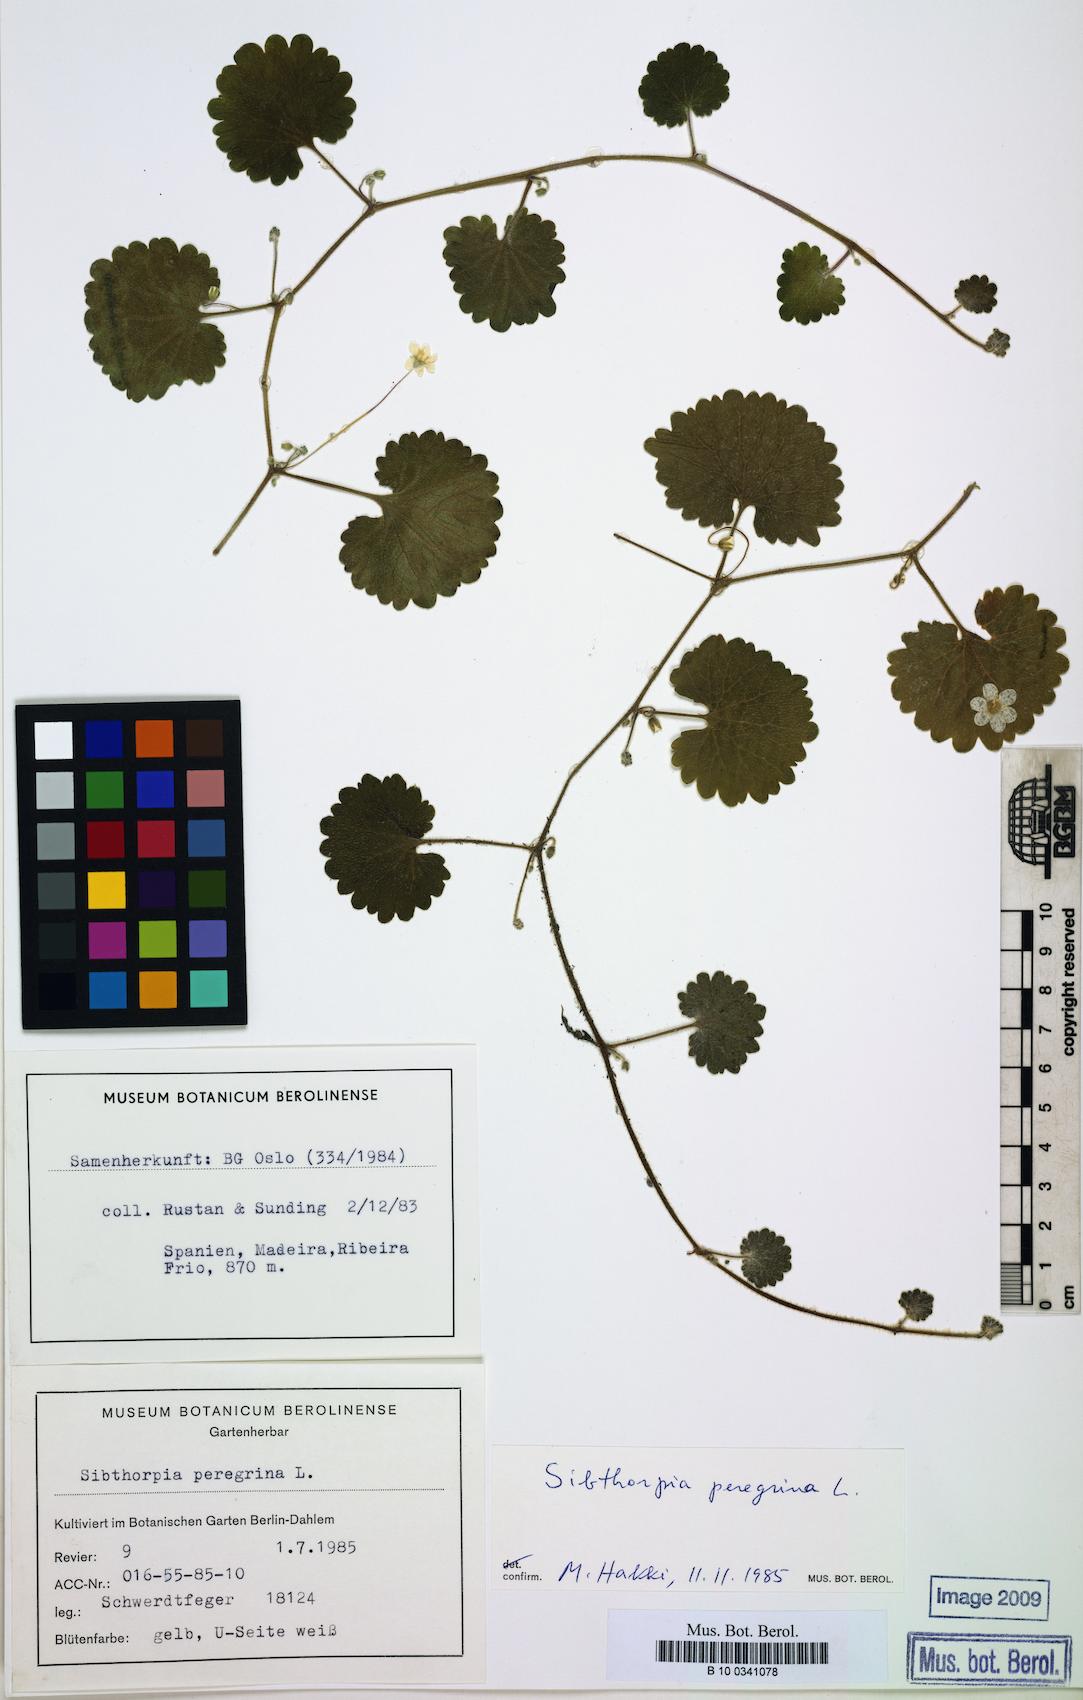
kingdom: Plantae
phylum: Tracheophyta
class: Magnoliopsida
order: Lamiales
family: Plantaginaceae
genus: Sibthorpia
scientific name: Sibthorpia peregrina
